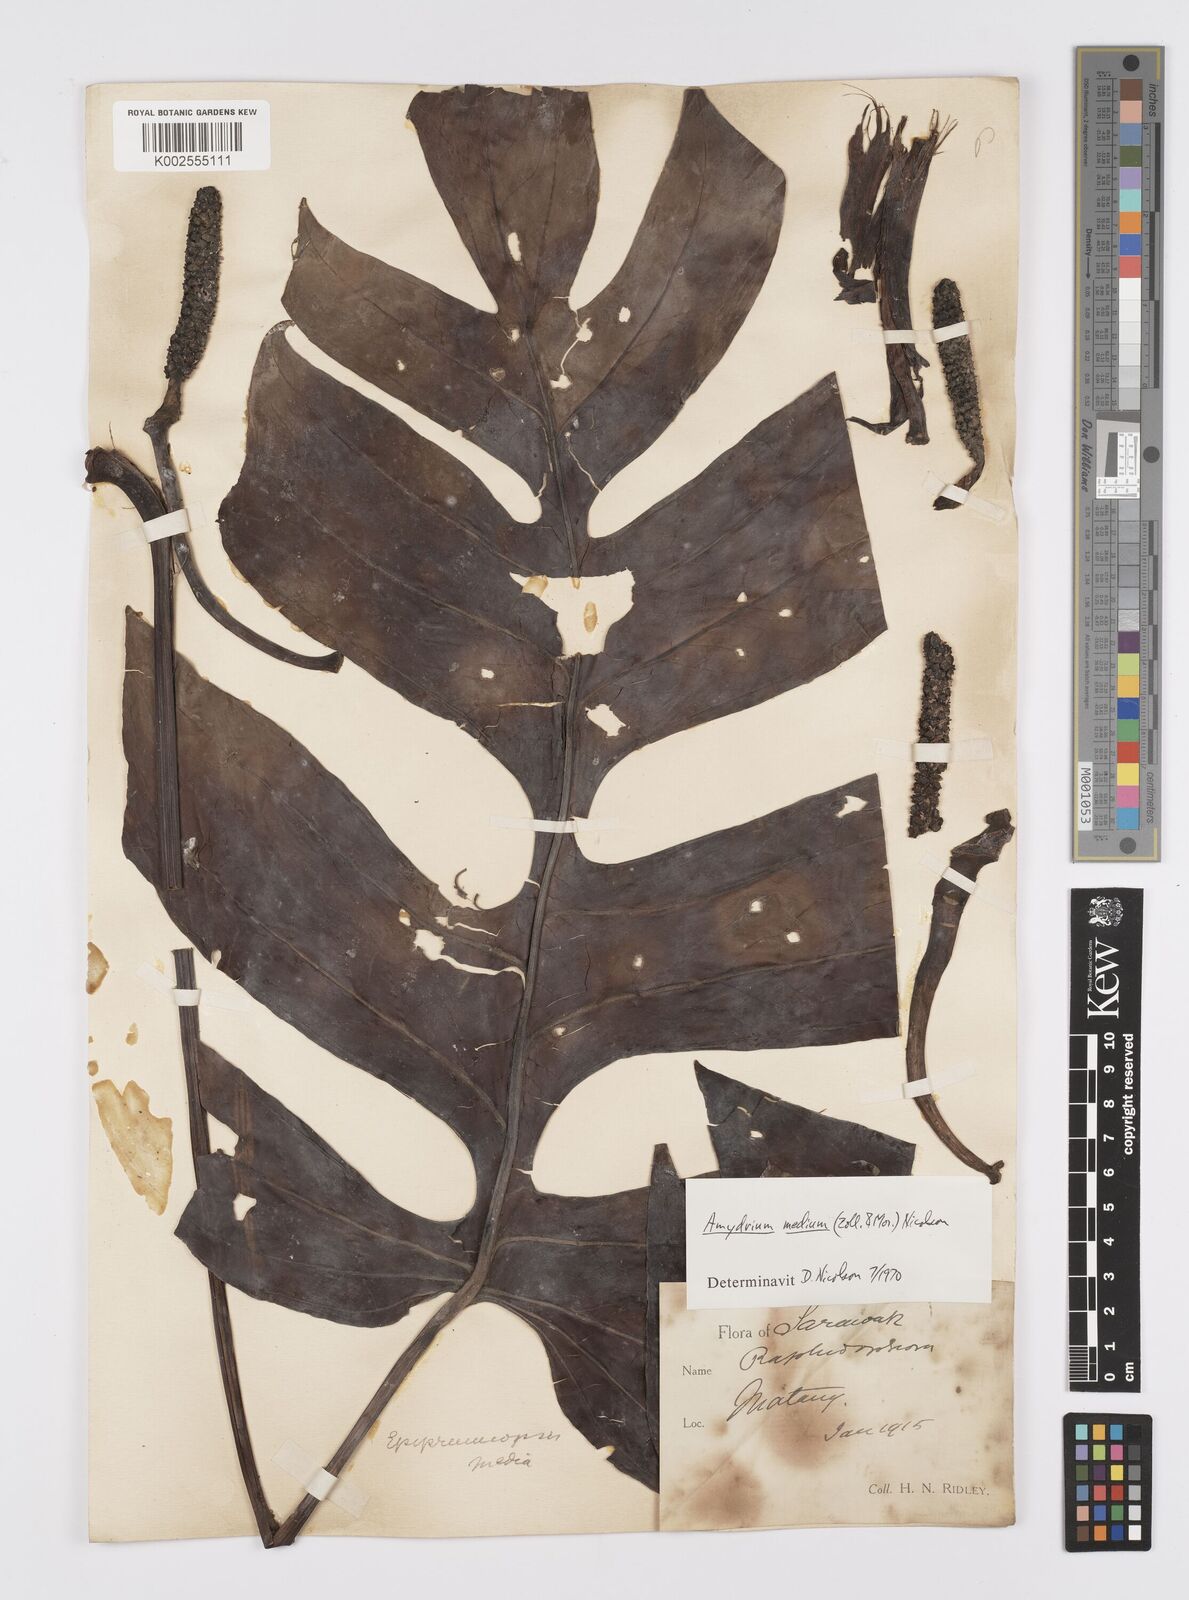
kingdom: Plantae
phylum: Tracheophyta
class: Liliopsida
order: Alismatales
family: Araceae
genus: Amydrium
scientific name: Amydrium medium
